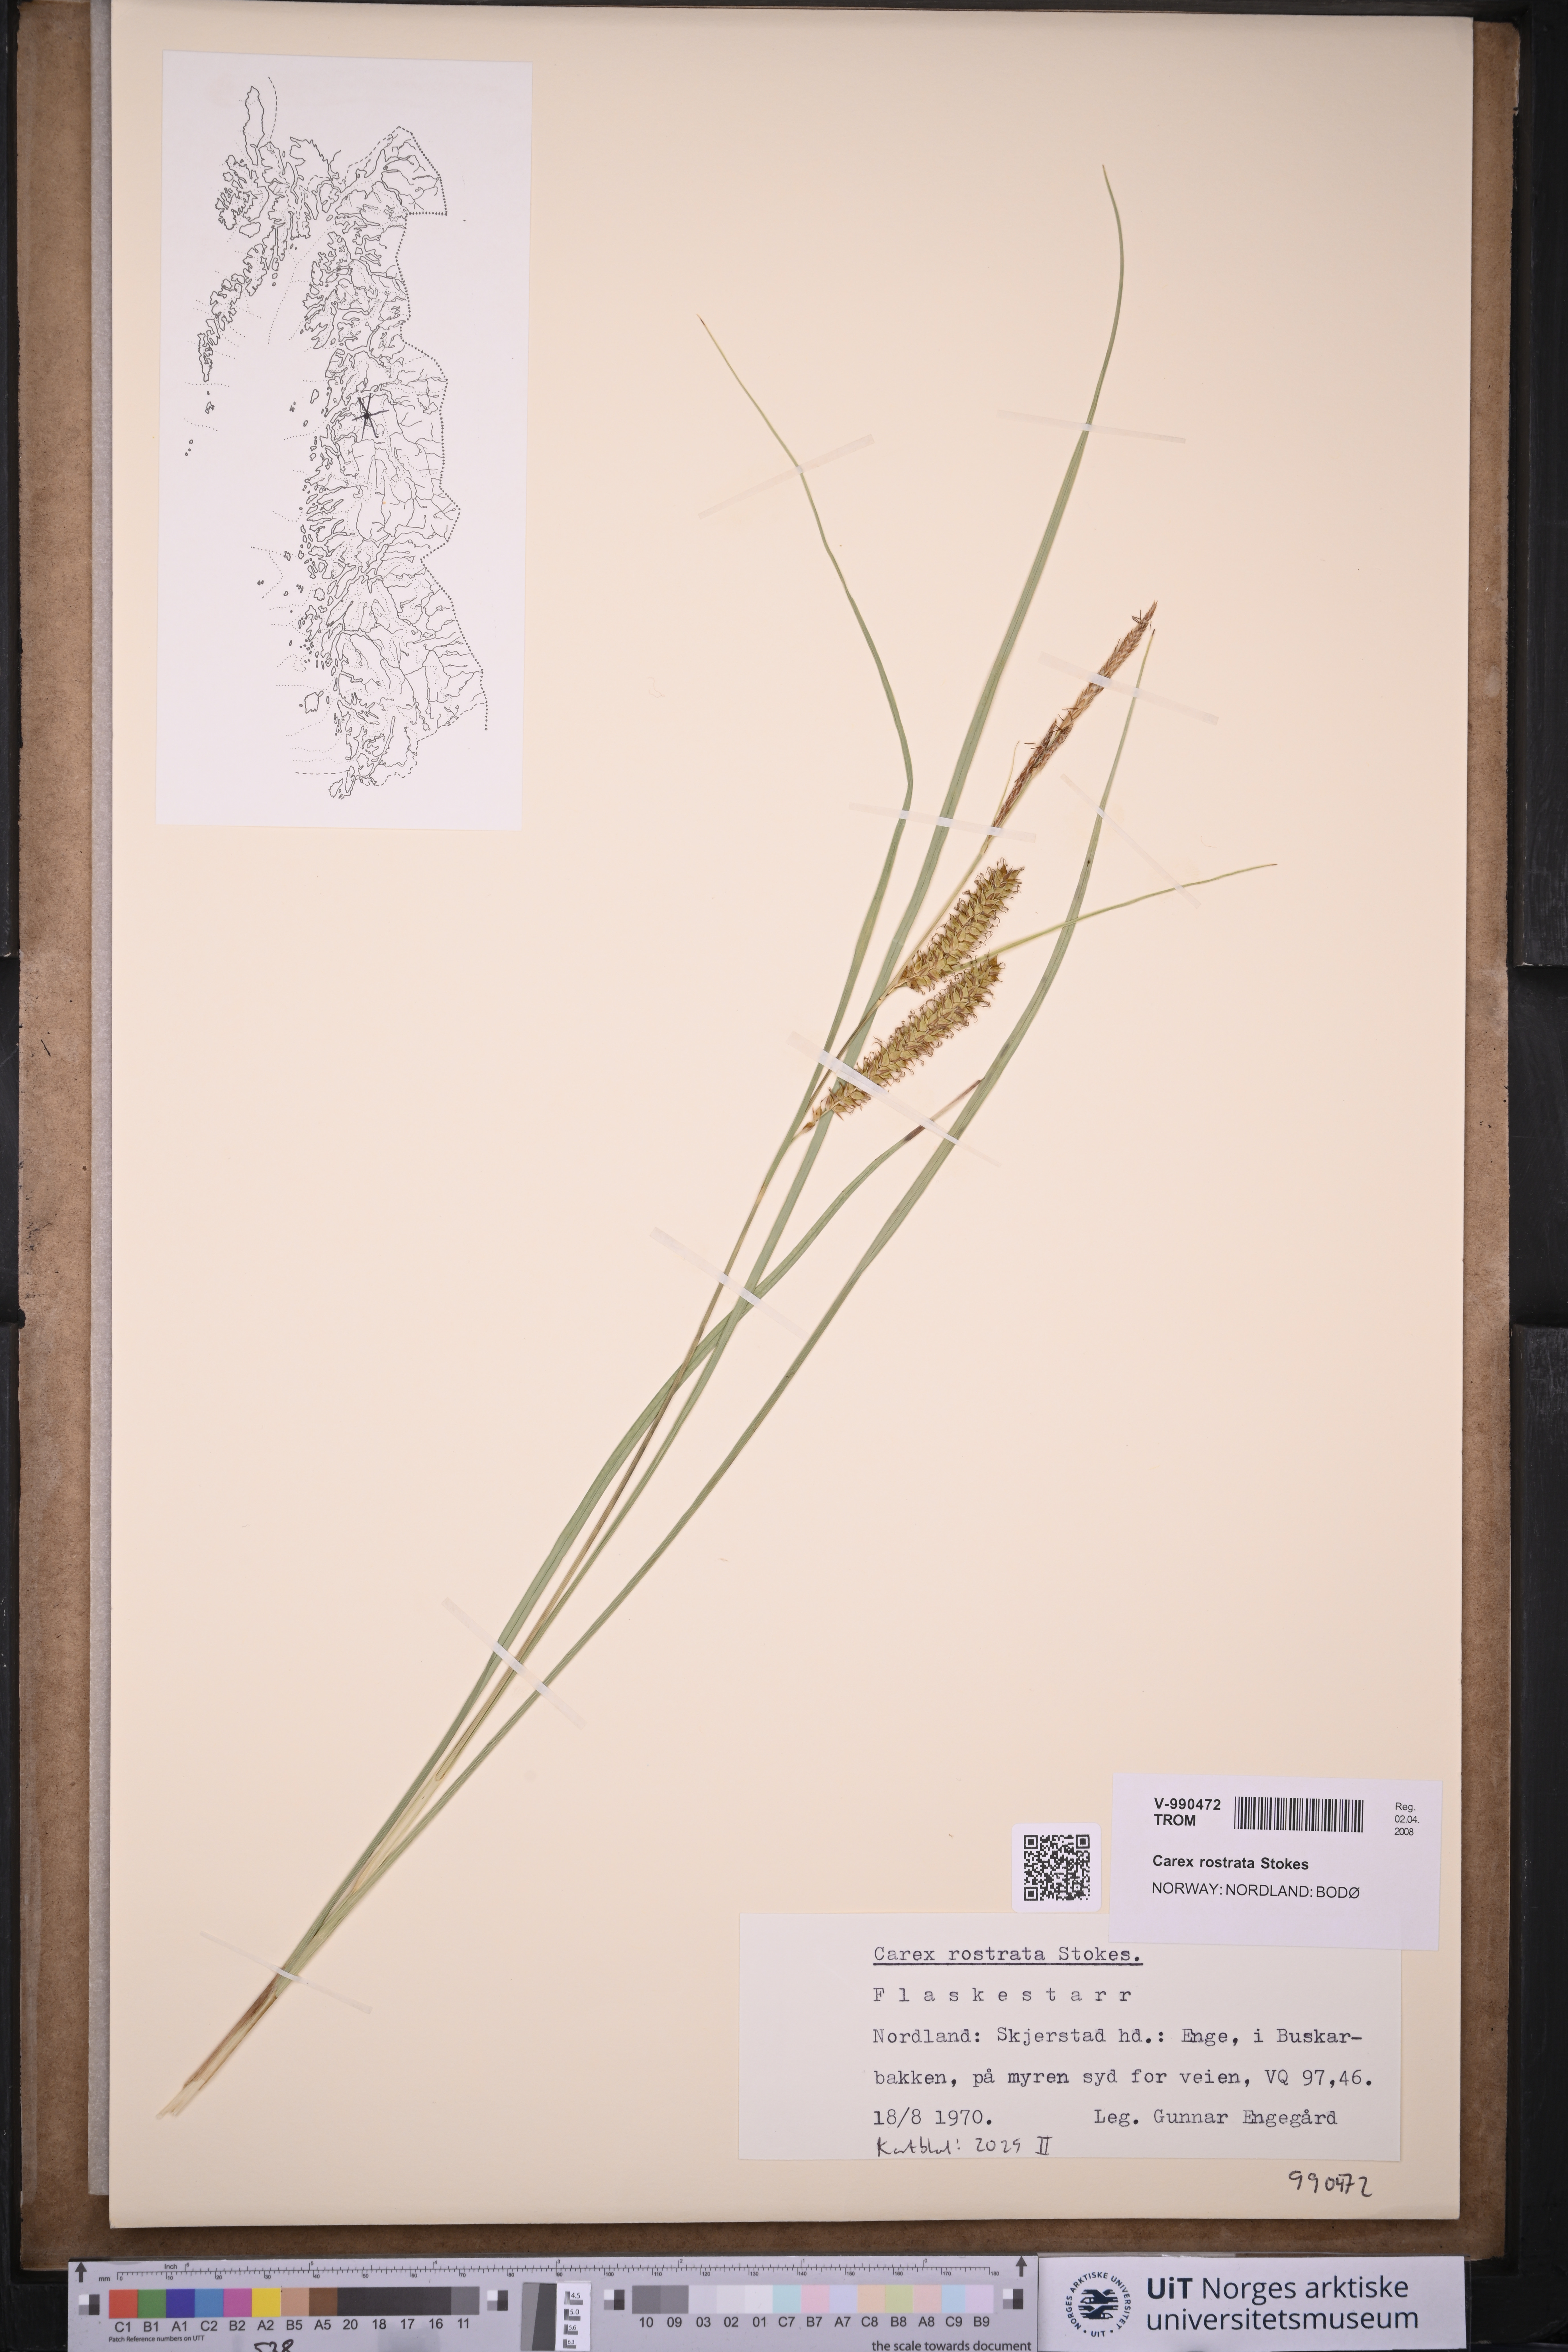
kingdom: Plantae
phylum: Tracheophyta
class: Liliopsida
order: Poales
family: Cyperaceae
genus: Carex
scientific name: Carex rostrata
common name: Bottle sedge
